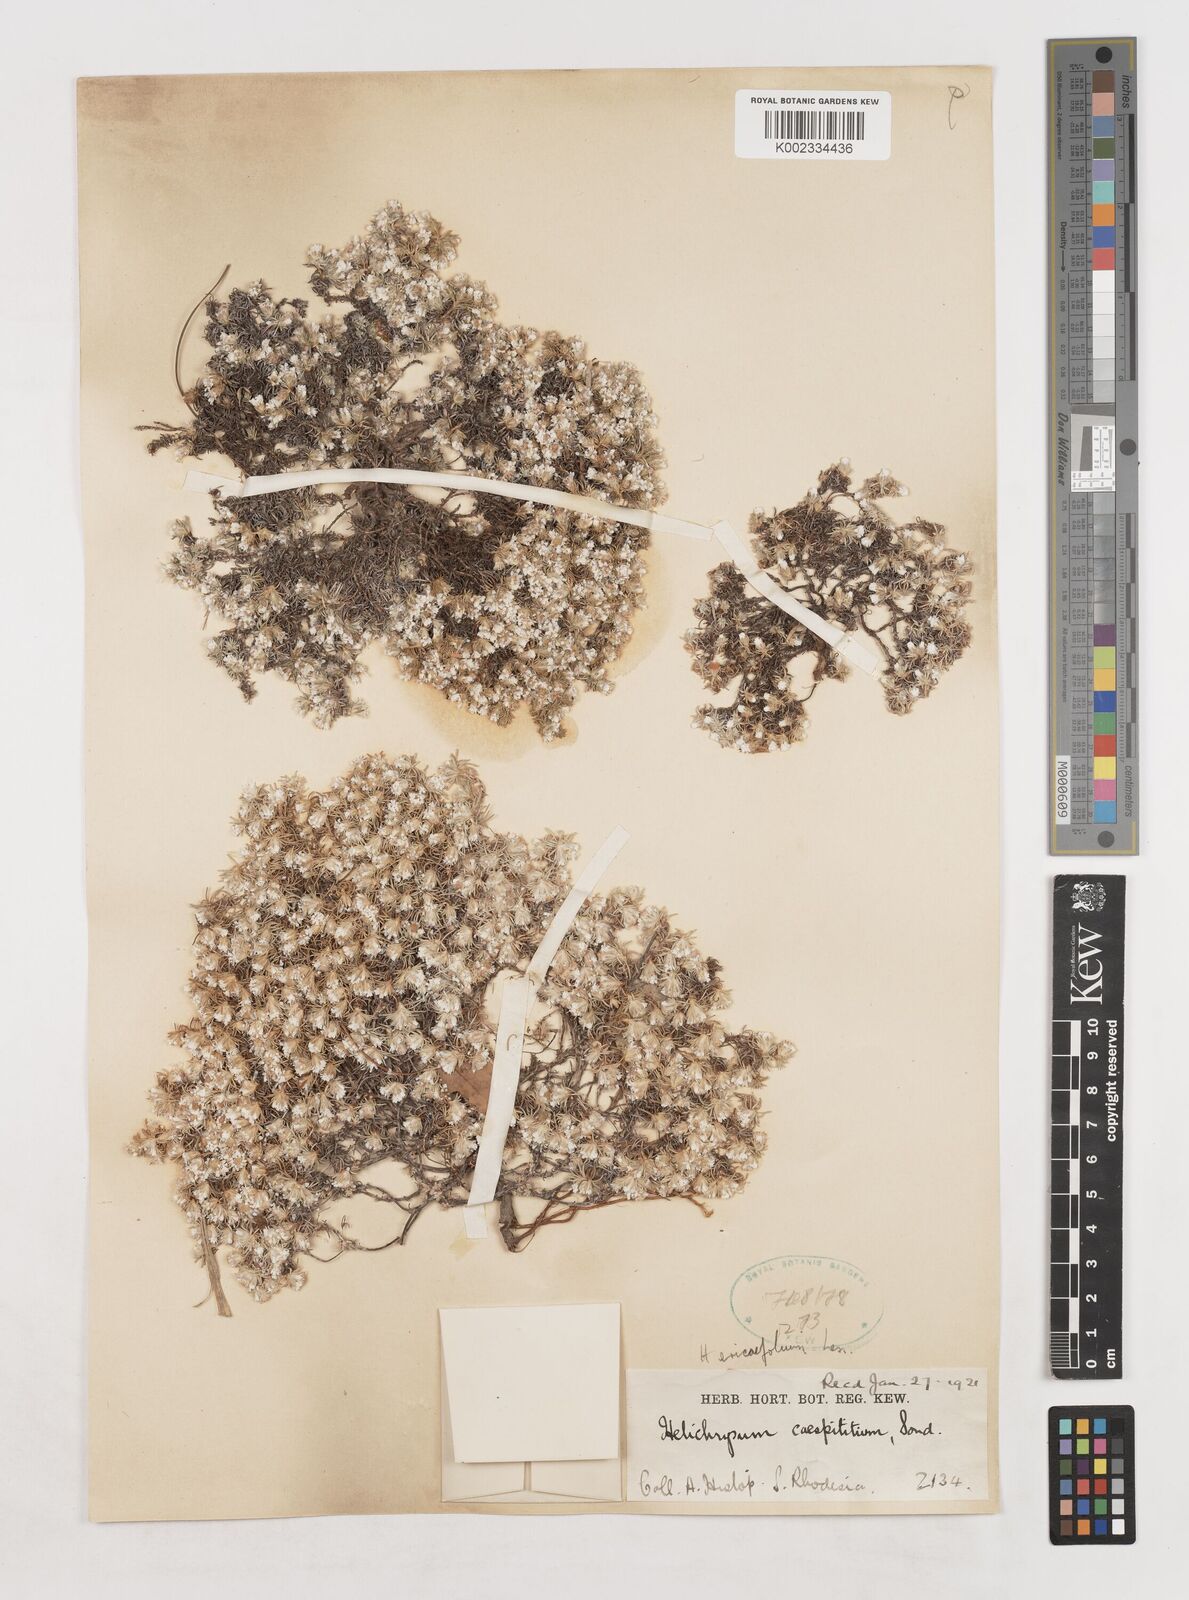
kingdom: Plantae
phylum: Tracheophyta
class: Magnoliopsida
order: Asterales
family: Asteraceae
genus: Helichrysum
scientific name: Helichrysum caespititium
